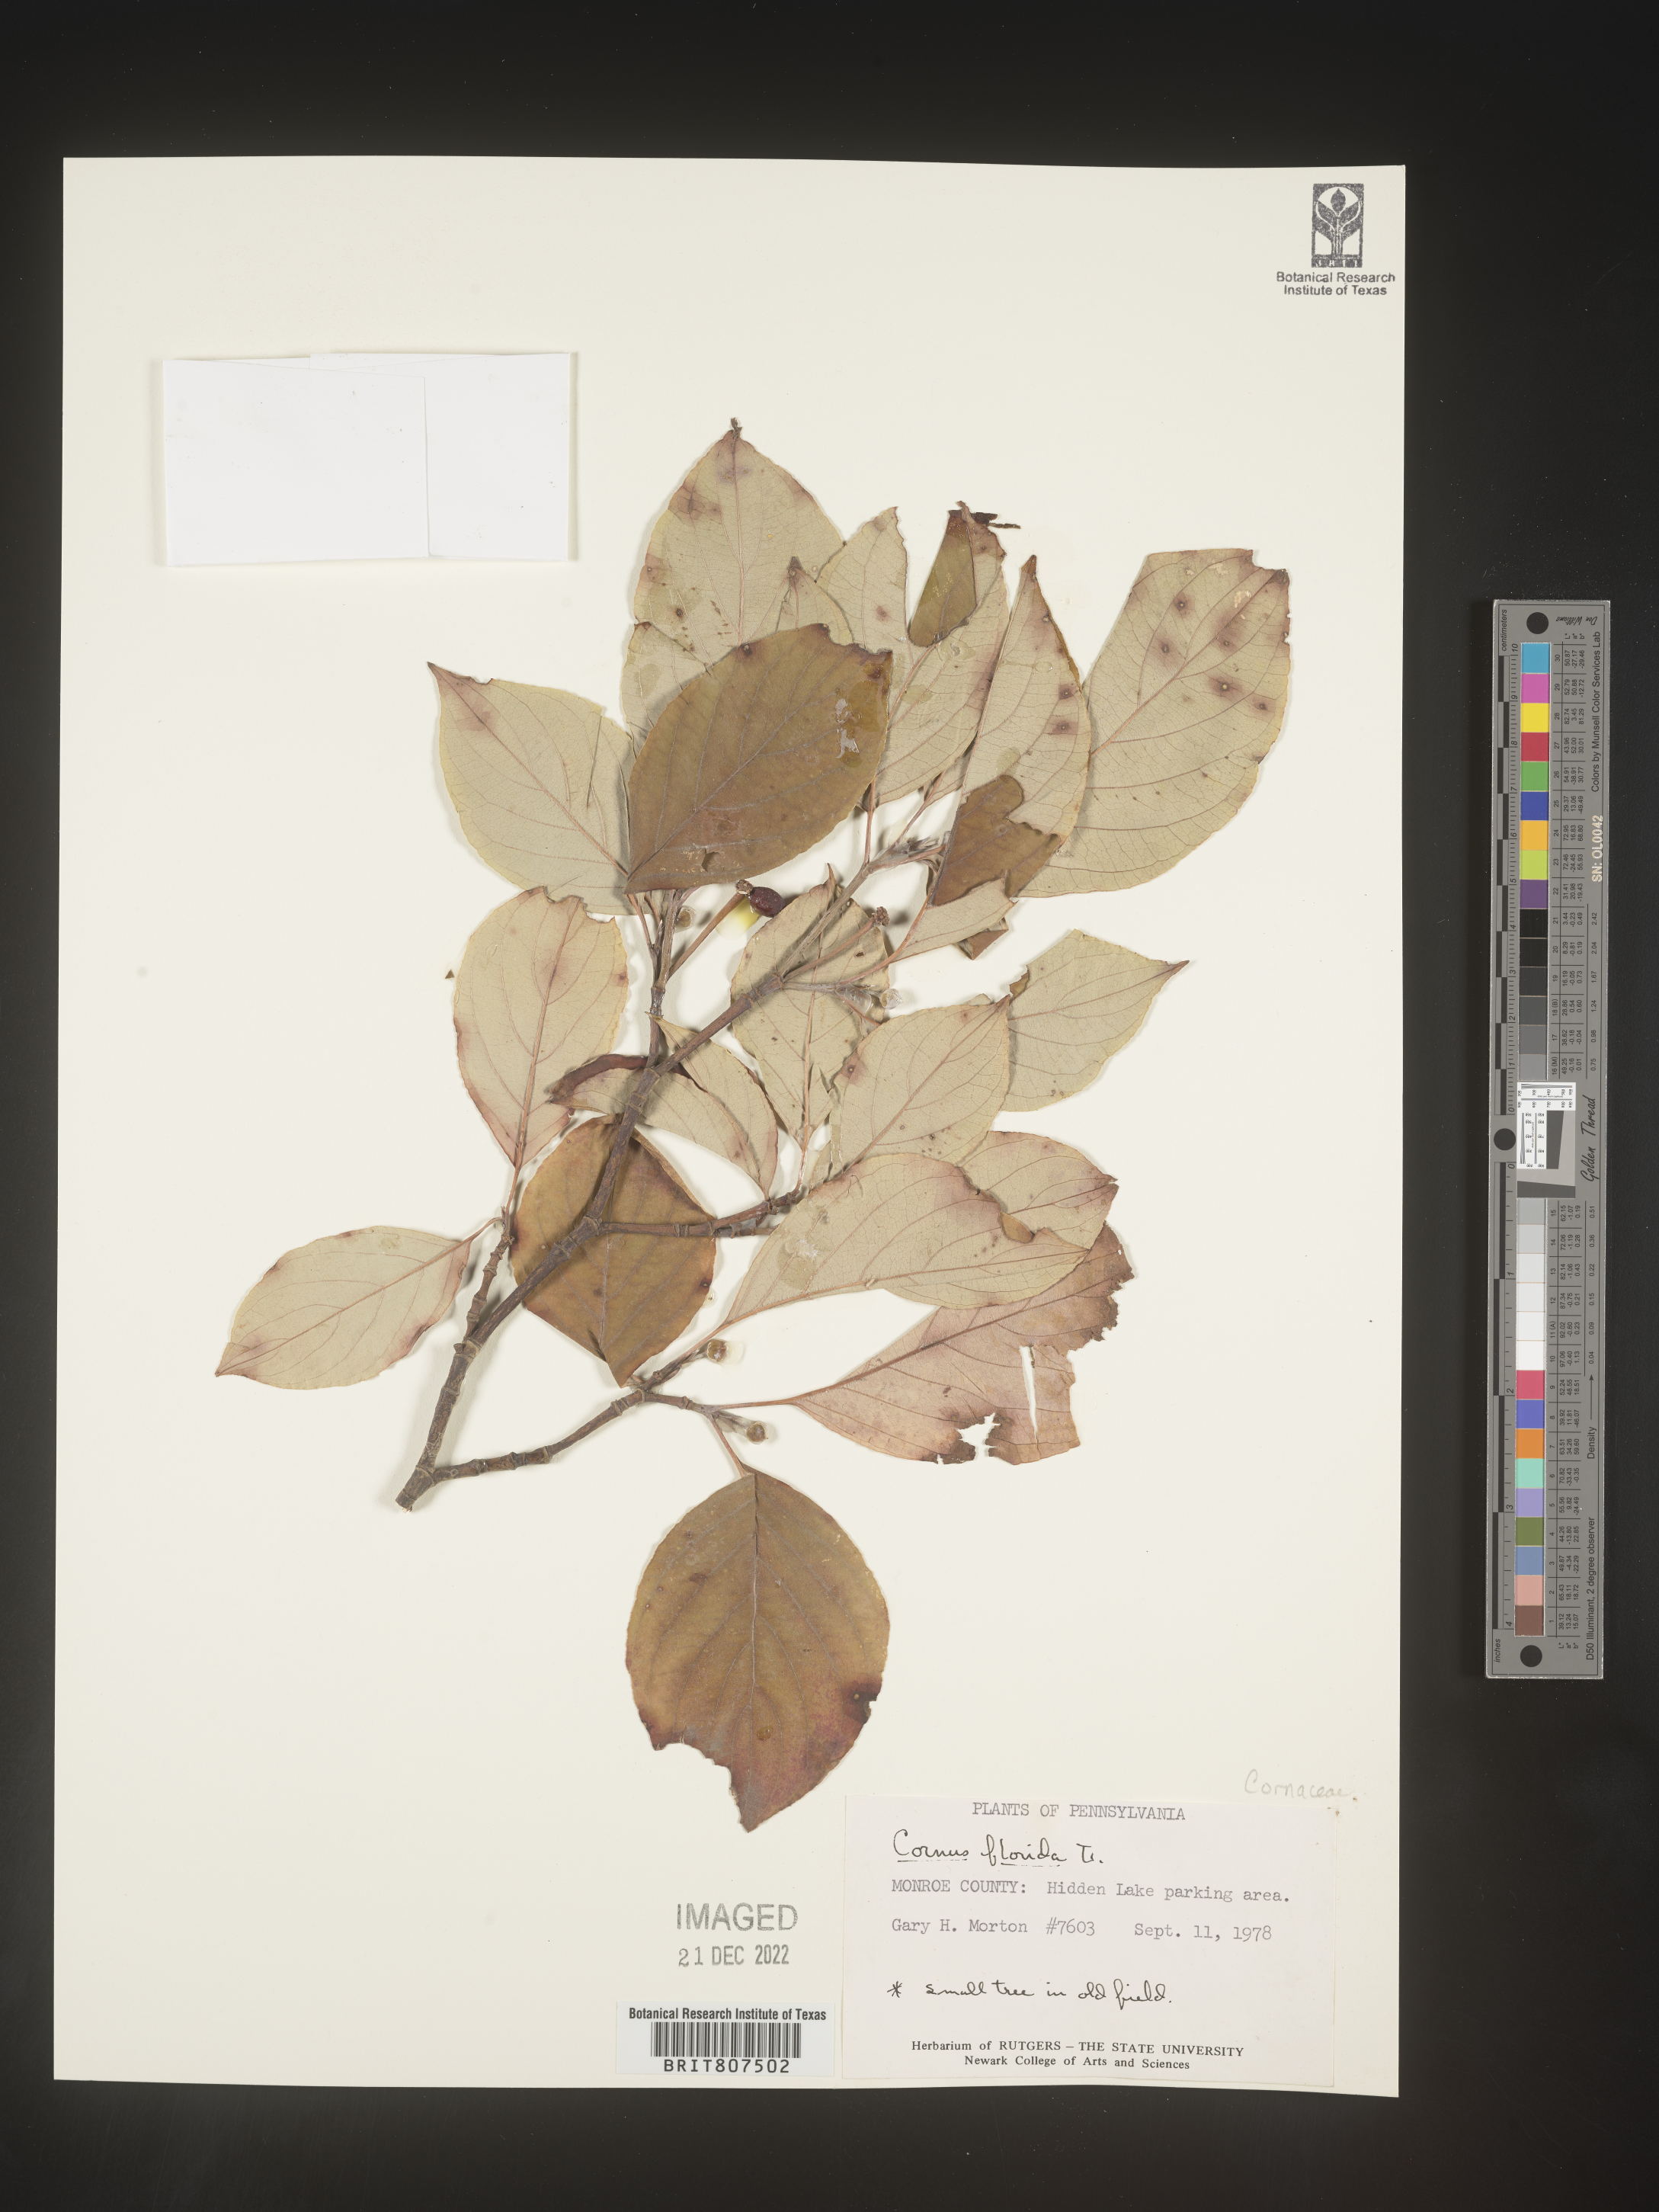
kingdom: Plantae
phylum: Tracheophyta
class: Magnoliopsida
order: Cornales
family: Cornaceae
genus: Cornus
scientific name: Cornus florida
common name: Flowering dogwood
